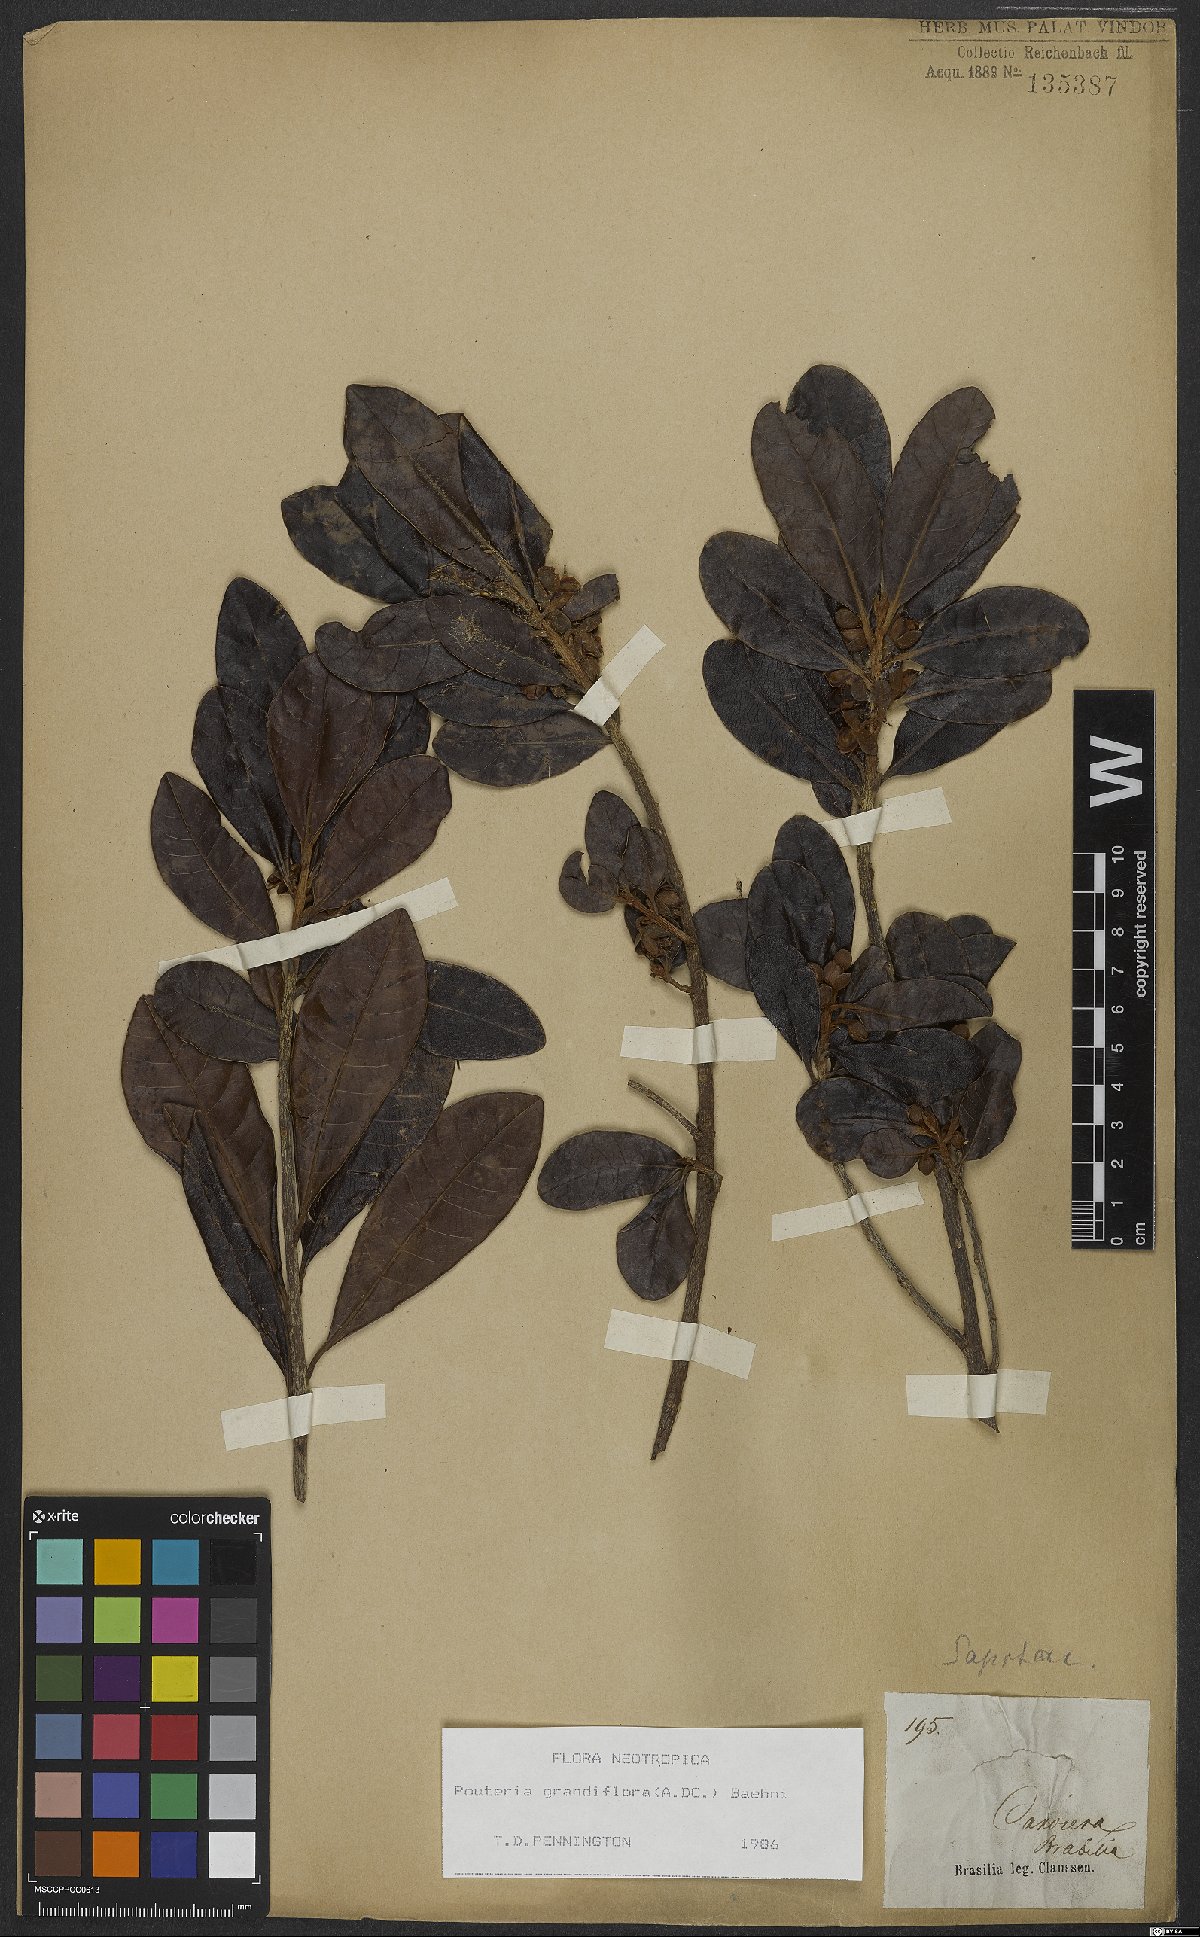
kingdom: Plantae
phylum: Tracheophyta
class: Magnoliopsida
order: Ericales
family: Sapotaceae
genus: Pouteria
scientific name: Pouteria grandiflora
